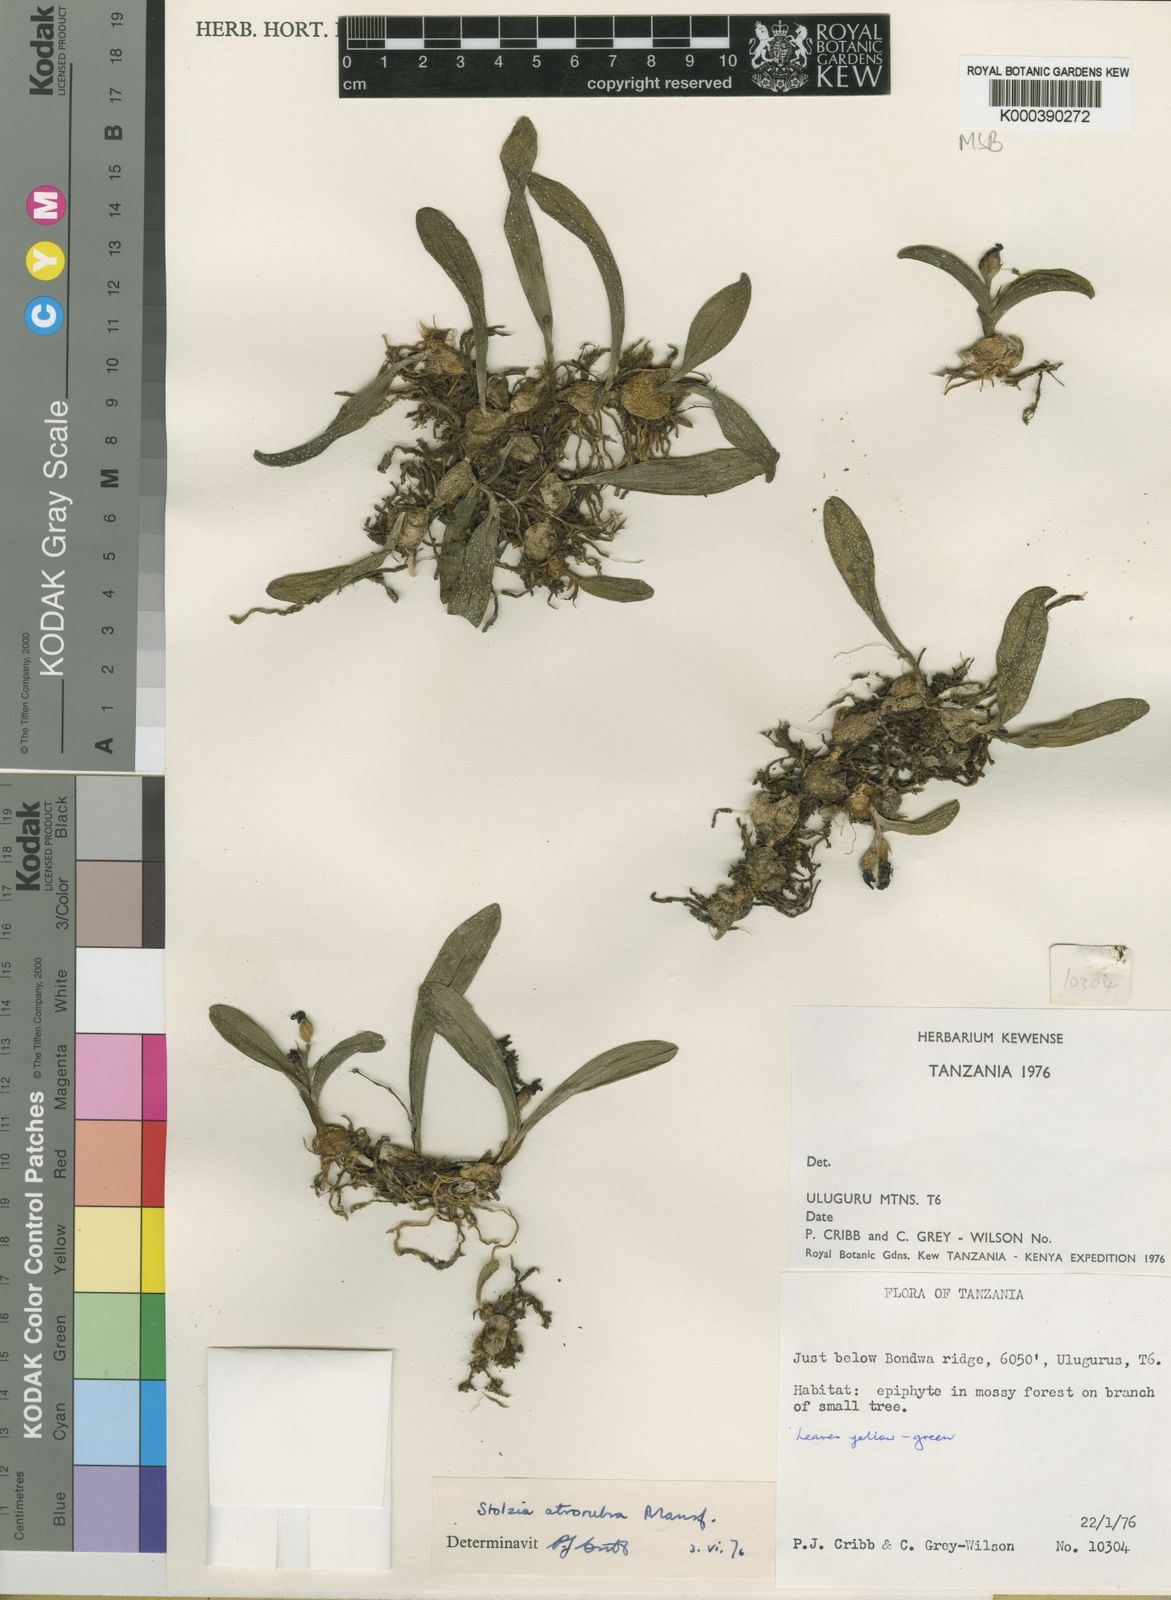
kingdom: Plantae
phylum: Tracheophyta
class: Liliopsida
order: Asparagales
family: Orchidaceae
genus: Porpax
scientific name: Porpax atrorubra
